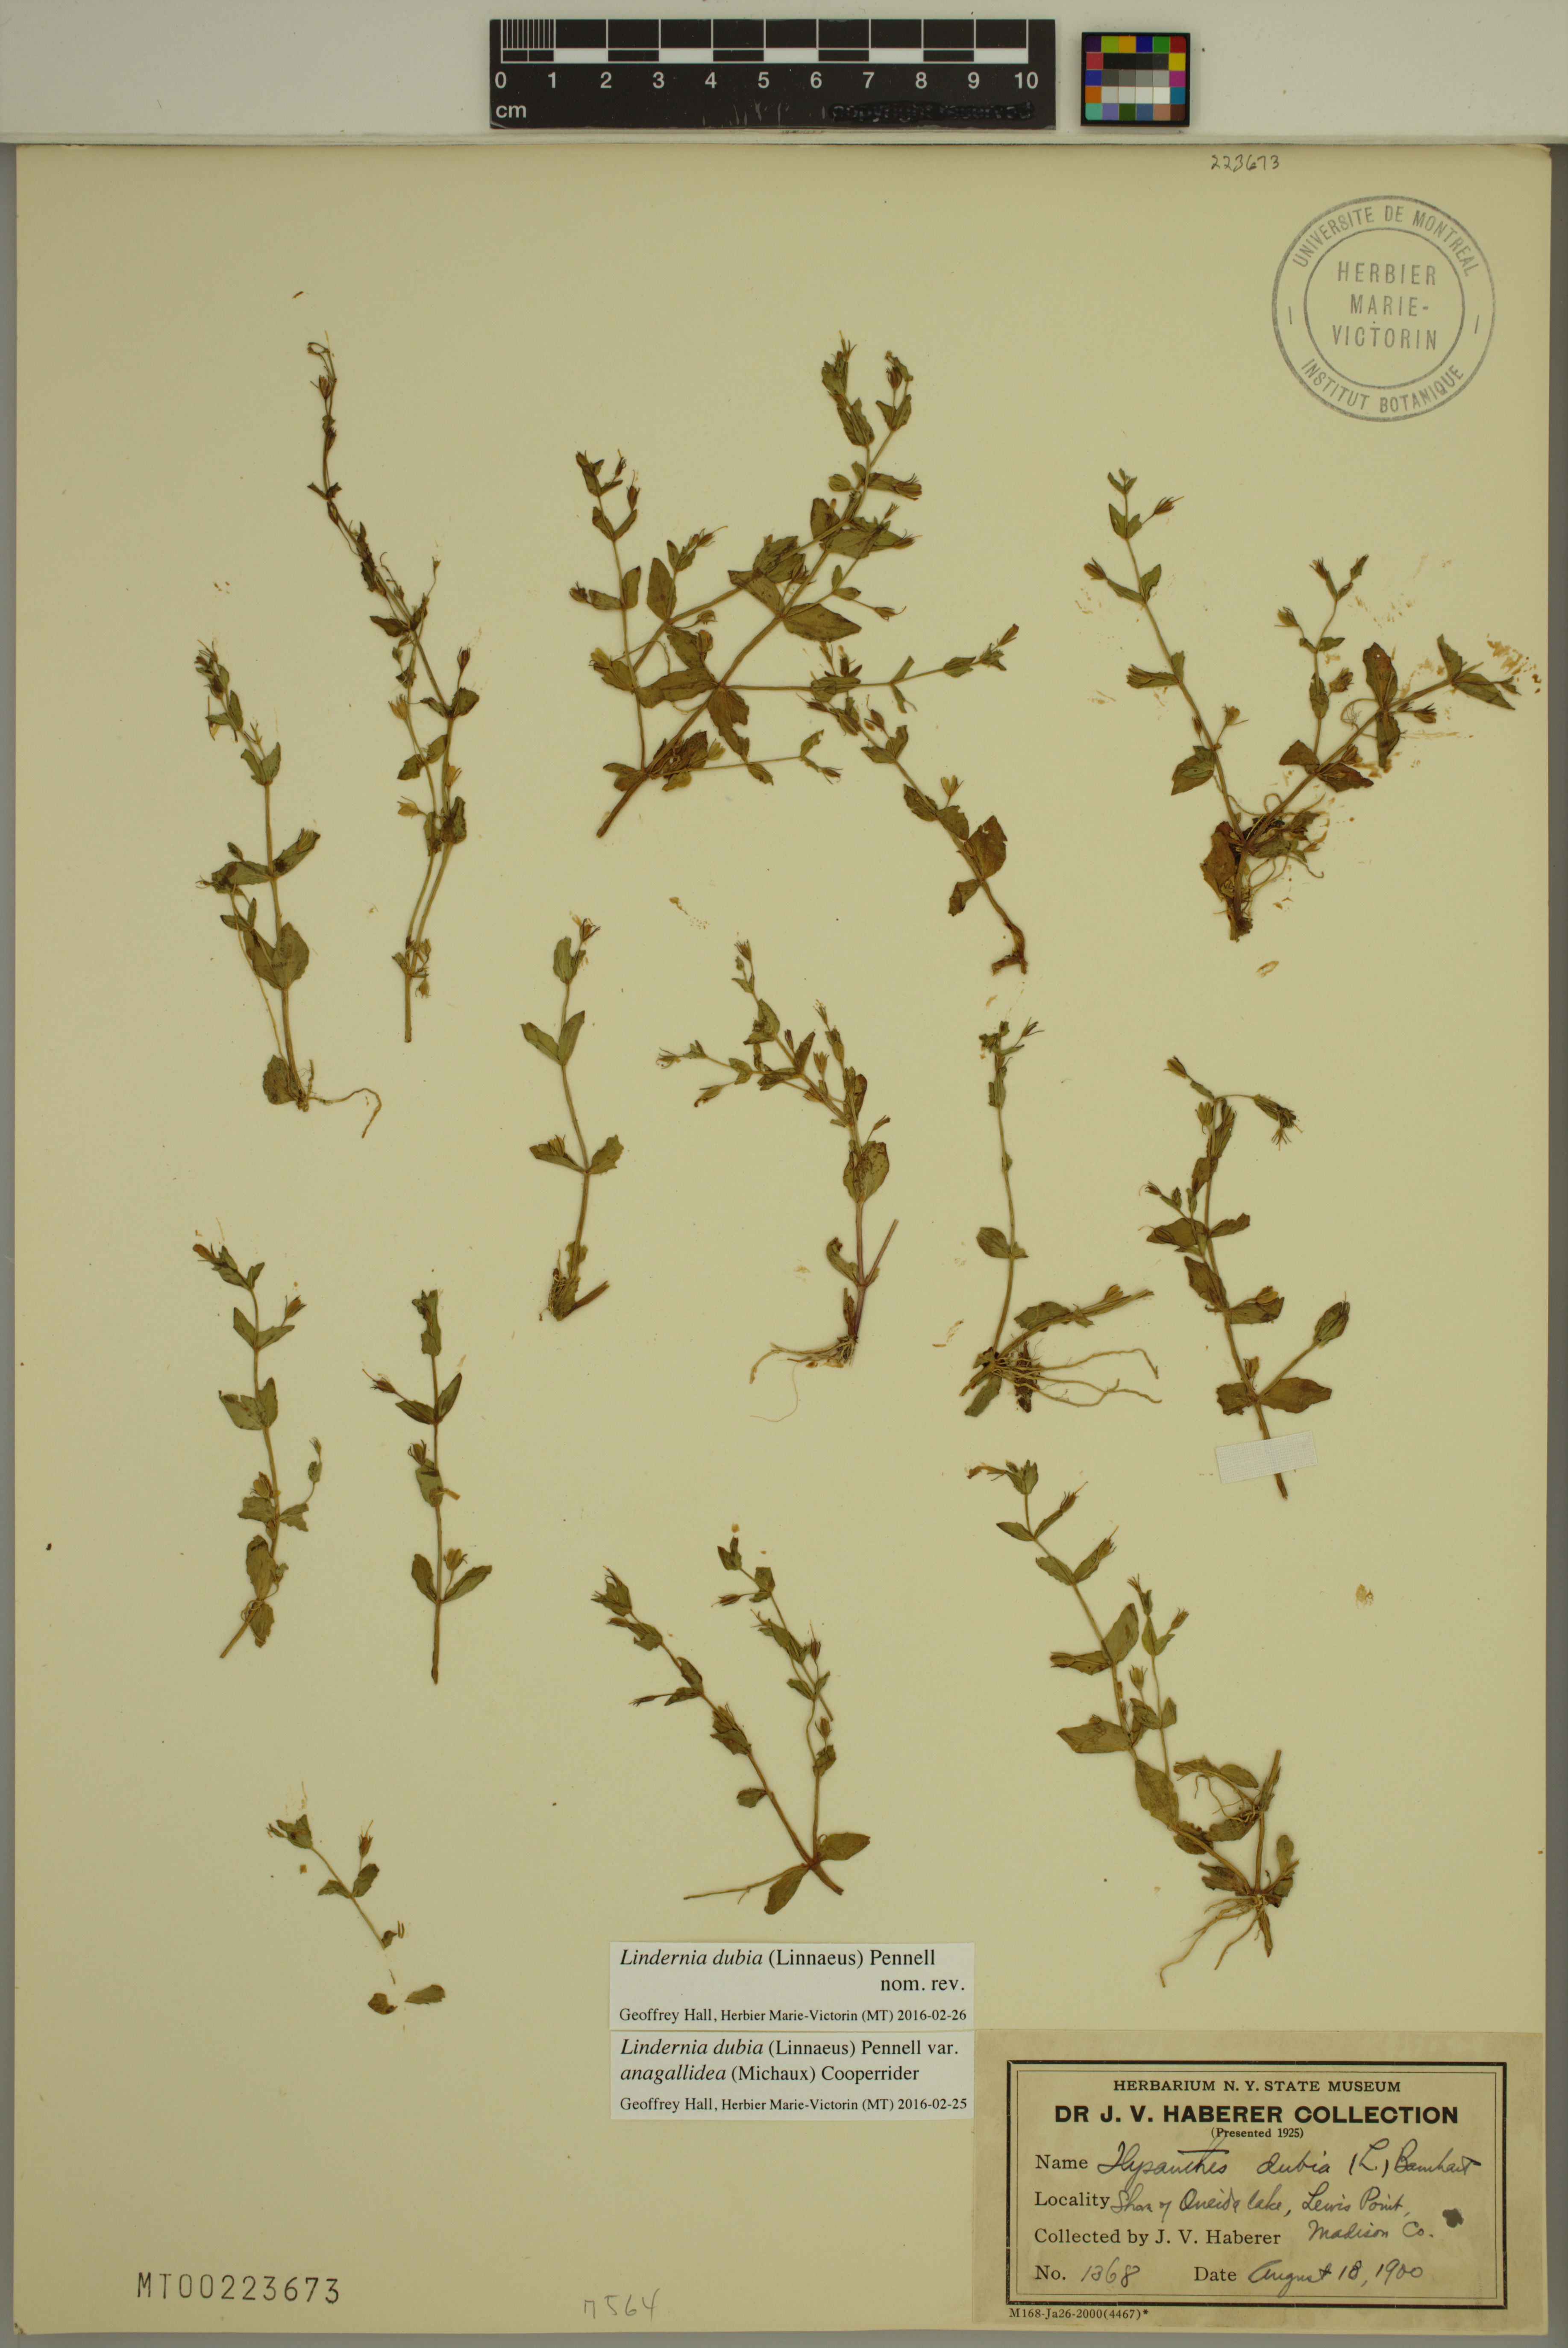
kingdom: Plantae
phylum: Tracheophyta
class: Magnoliopsida
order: Lamiales
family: Linderniaceae
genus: Lindernia
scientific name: Lindernia dubia
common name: Annual false pimpernel
